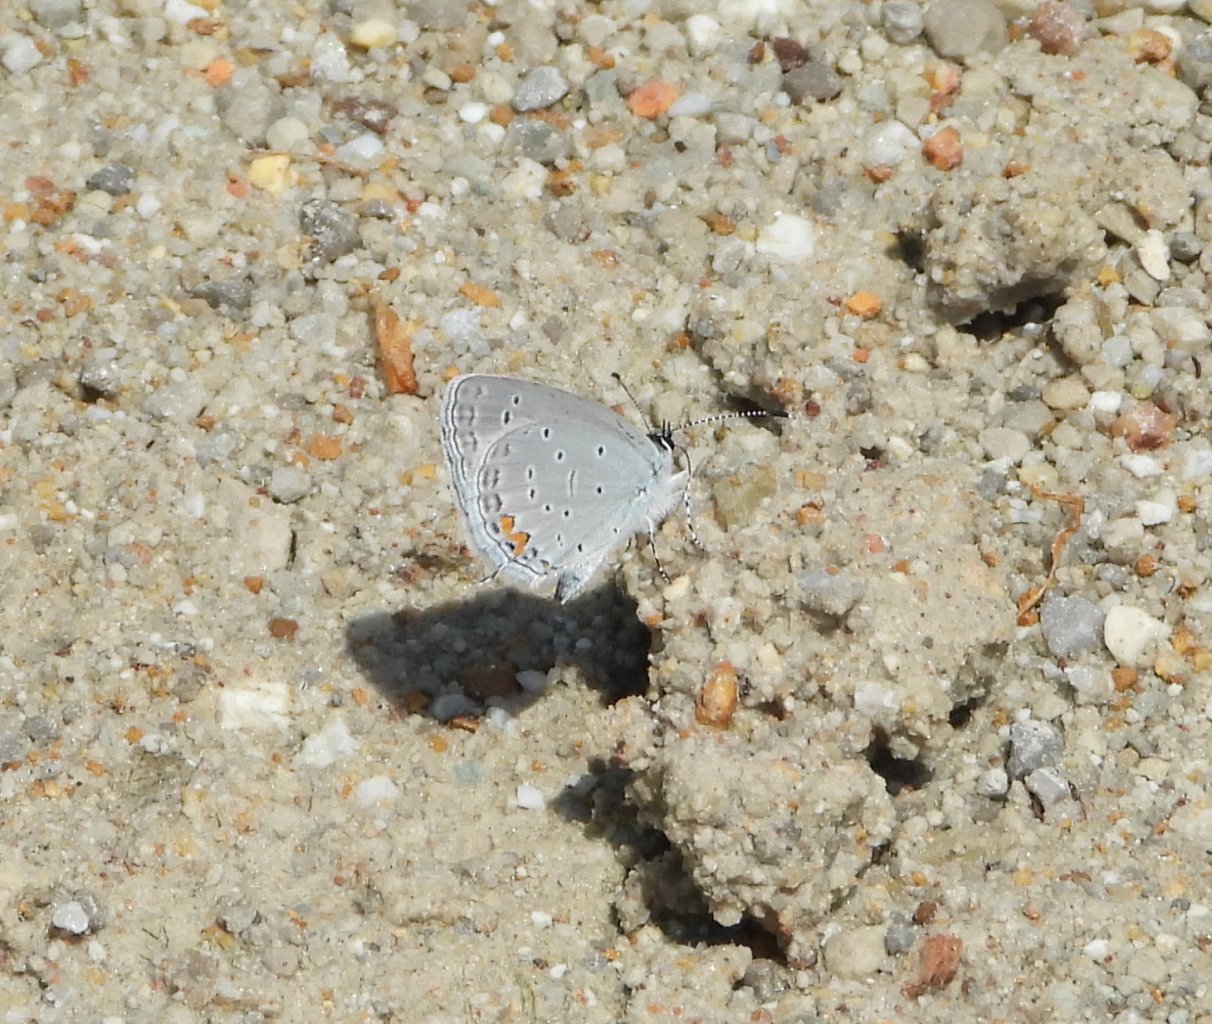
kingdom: Animalia
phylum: Arthropoda
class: Insecta
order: Lepidoptera
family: Lycaenidae
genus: Elkalyce
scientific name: Elkalyce comyntas
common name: Eastern Tailed-Blue
